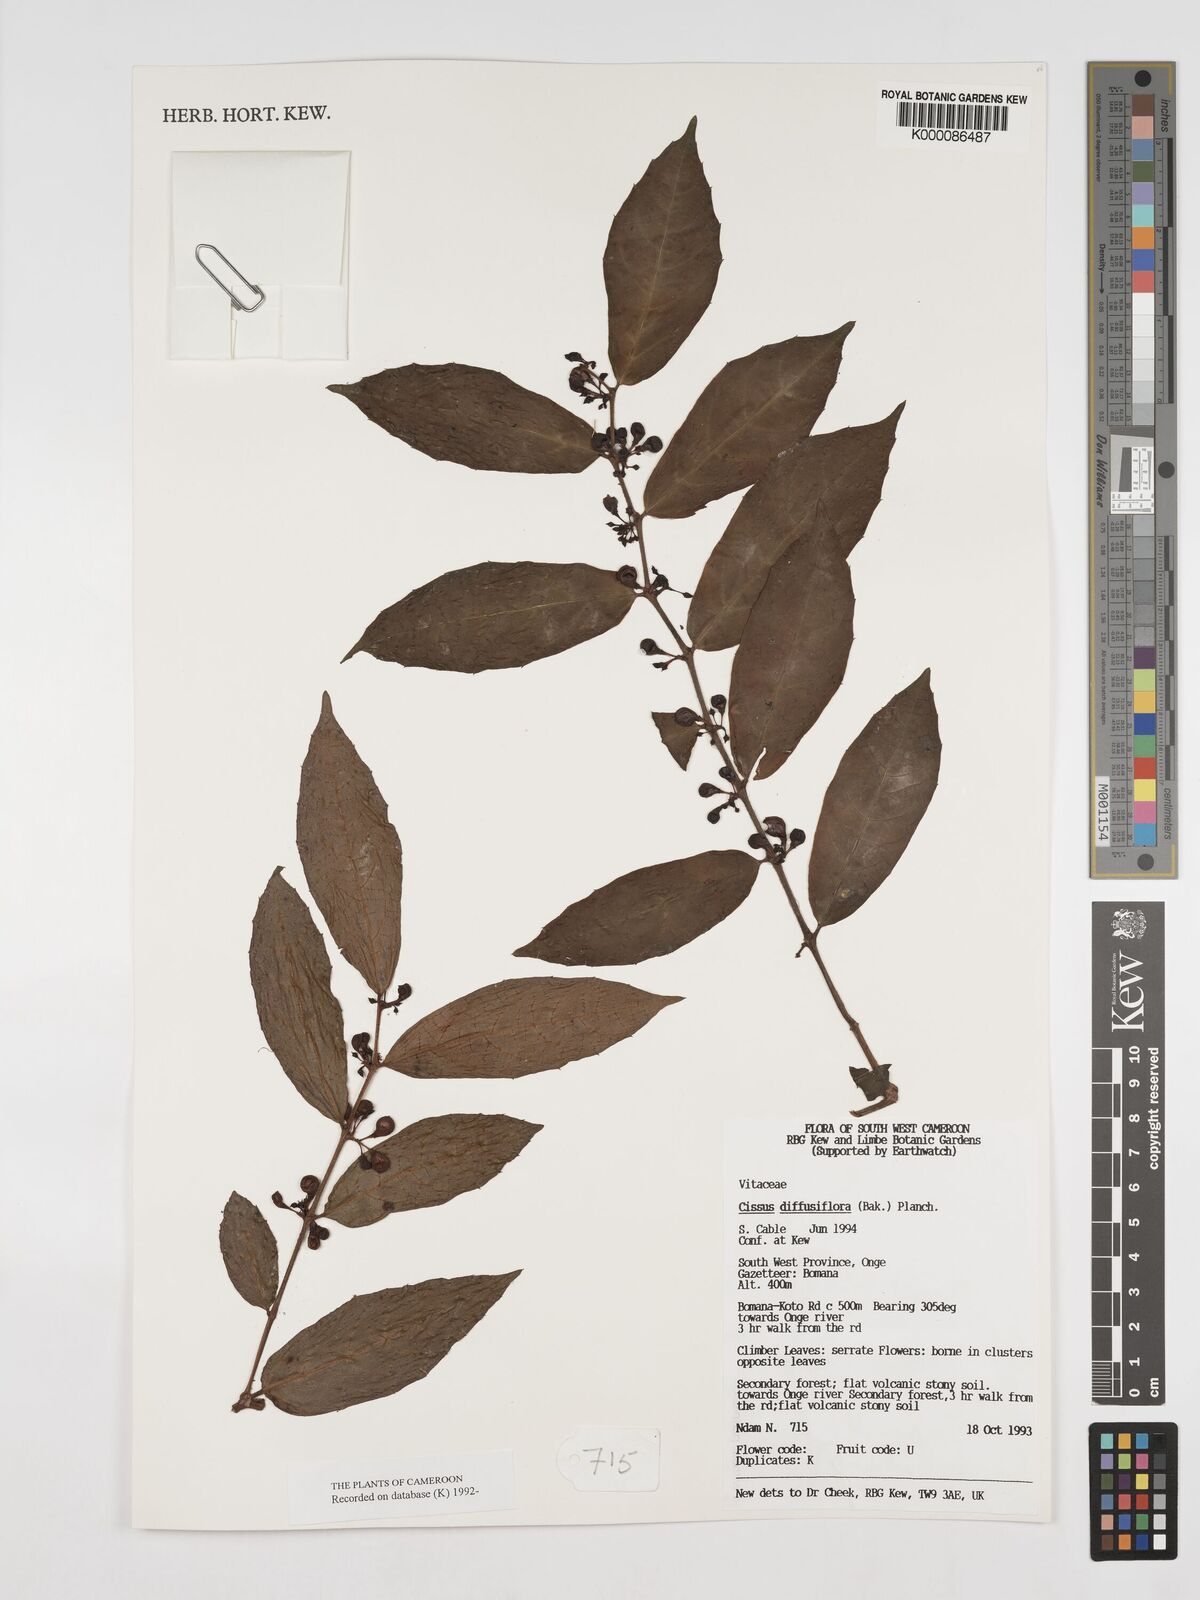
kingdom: Plantae
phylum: Tracheophyta
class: Magnoliopsida
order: Vitales
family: Vitaceae
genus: Cissus
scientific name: Cissus diffusiflora
